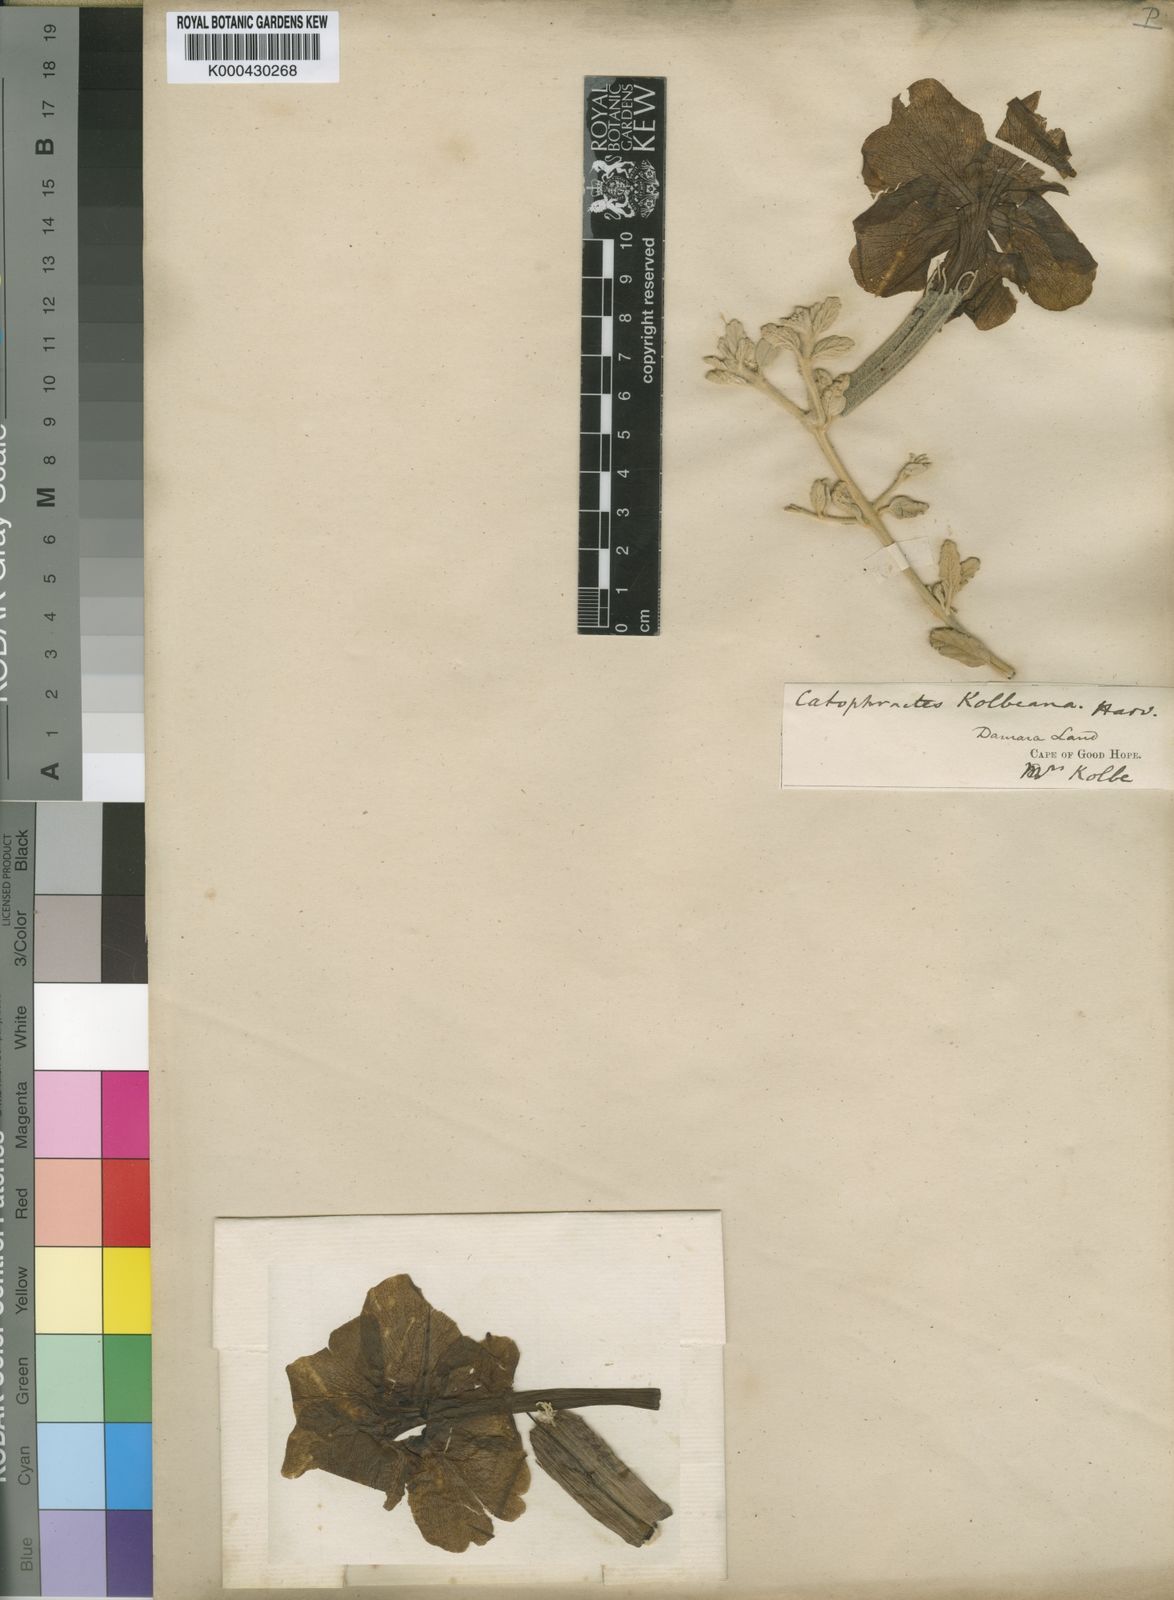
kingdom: Plantae
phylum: Tracheophyta
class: Magnoliopsida
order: Lamiales
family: Bignoniaceae
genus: Catophractes
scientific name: Catophractes alexandri
